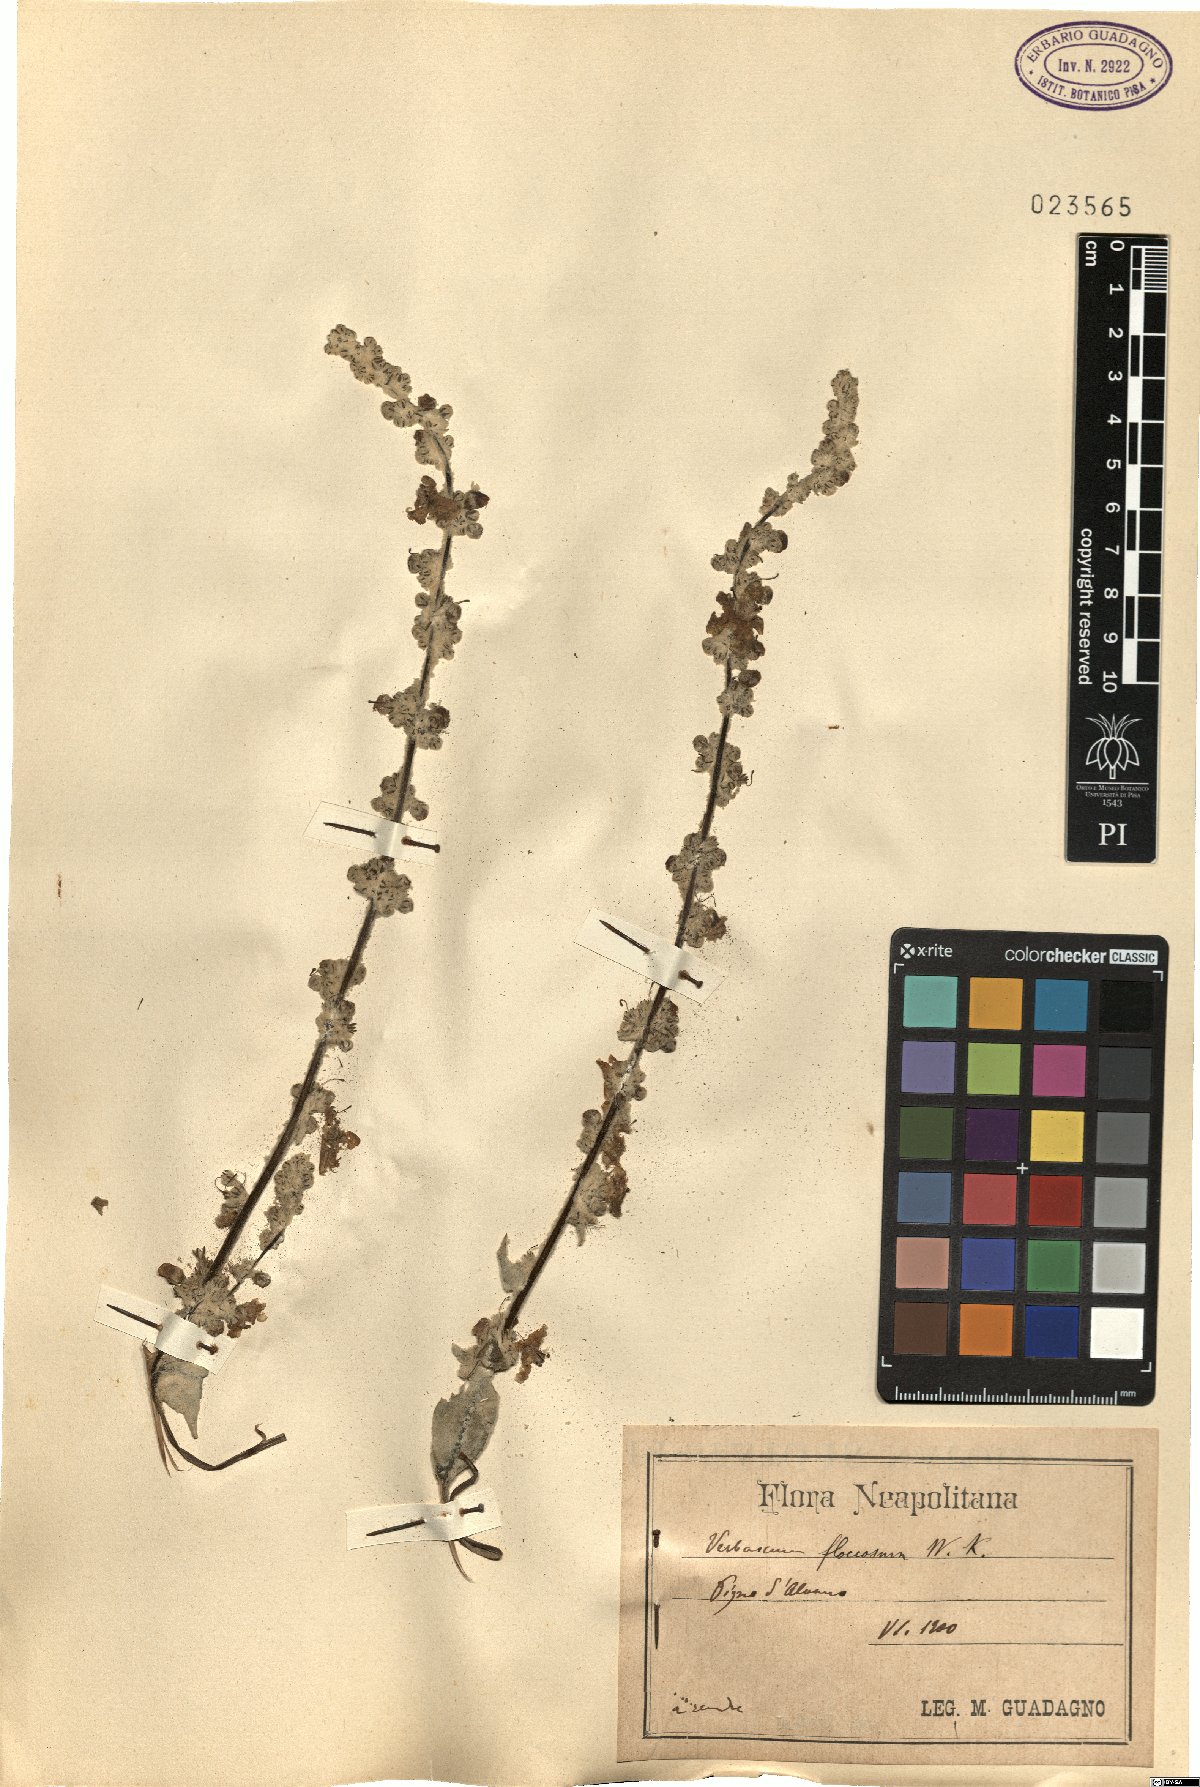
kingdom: Plantae
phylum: Tracheophyta
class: Magnoliopsida
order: Lamiales
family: Scrophulariaceae
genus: Verbascum
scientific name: Verbascum pulverulentum
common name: Broad-leaf mullein
